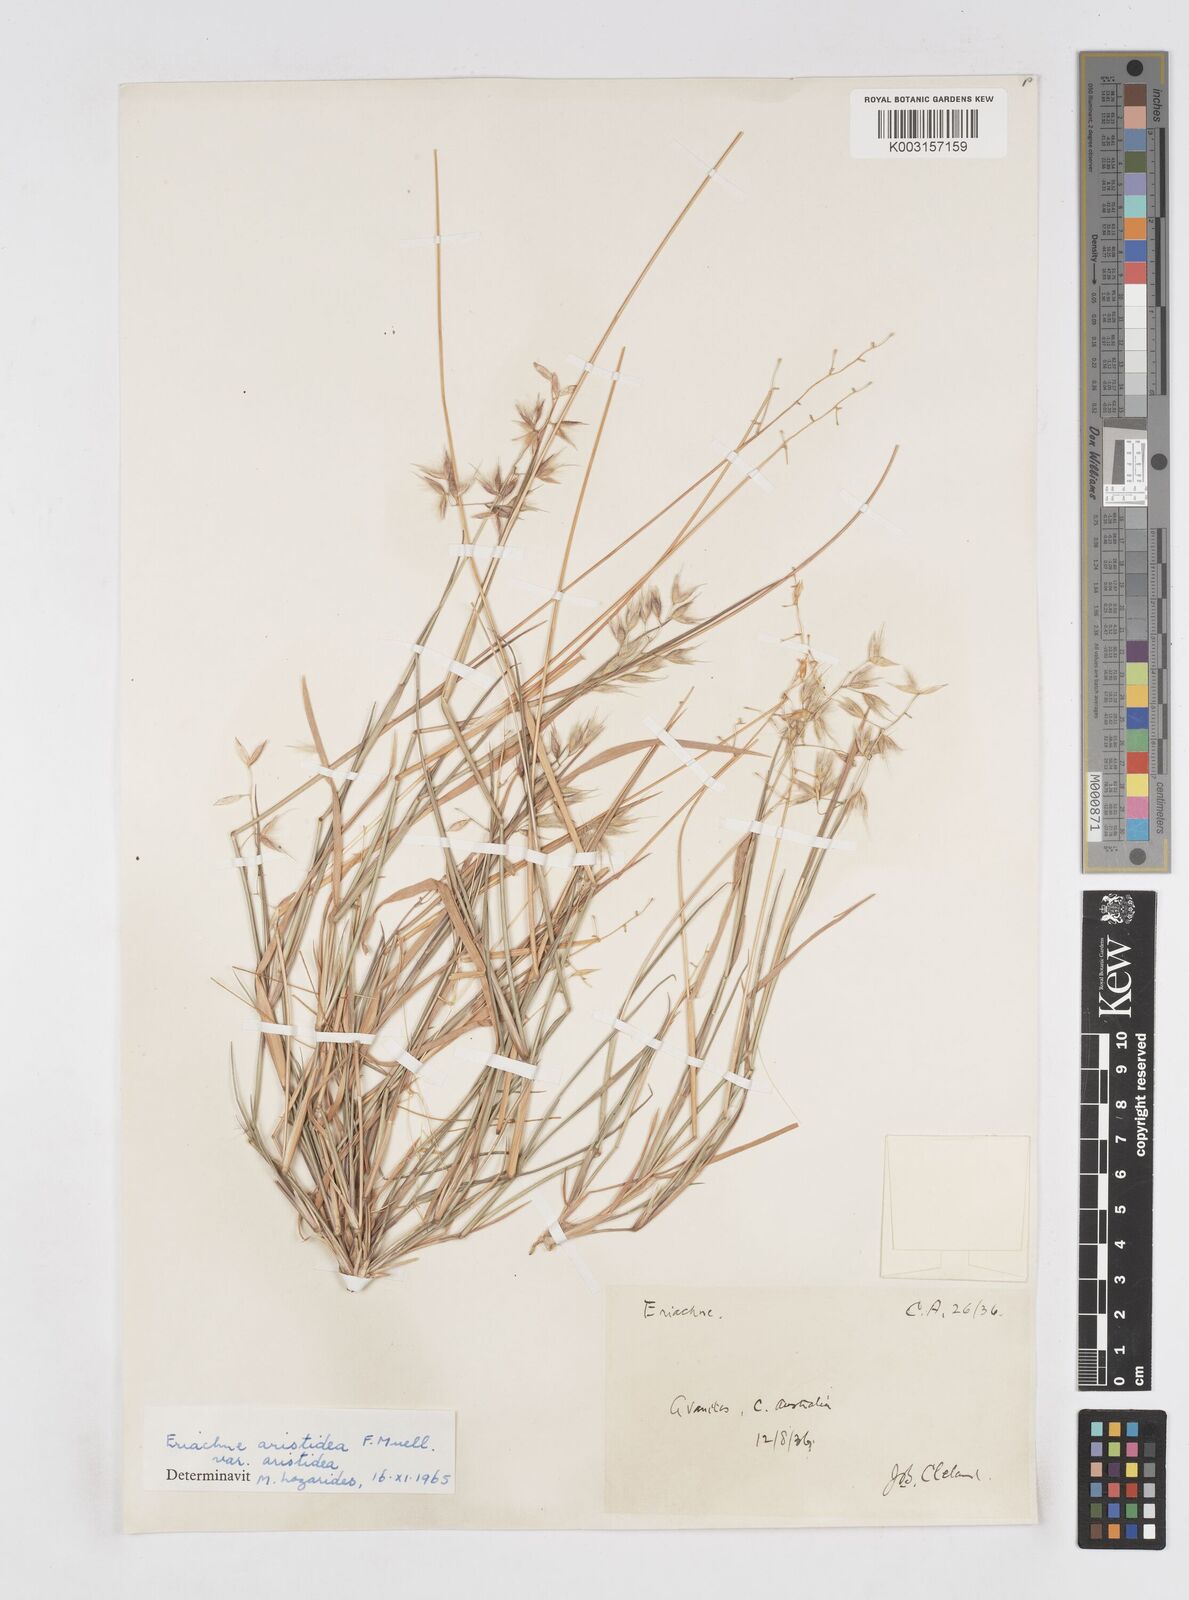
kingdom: Plantae
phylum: Tracheophyta
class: Liliopsida
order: Poales
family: Poaceae
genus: Eriachne
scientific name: Eriachne aristidea
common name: Three-awn wanderrie grass
